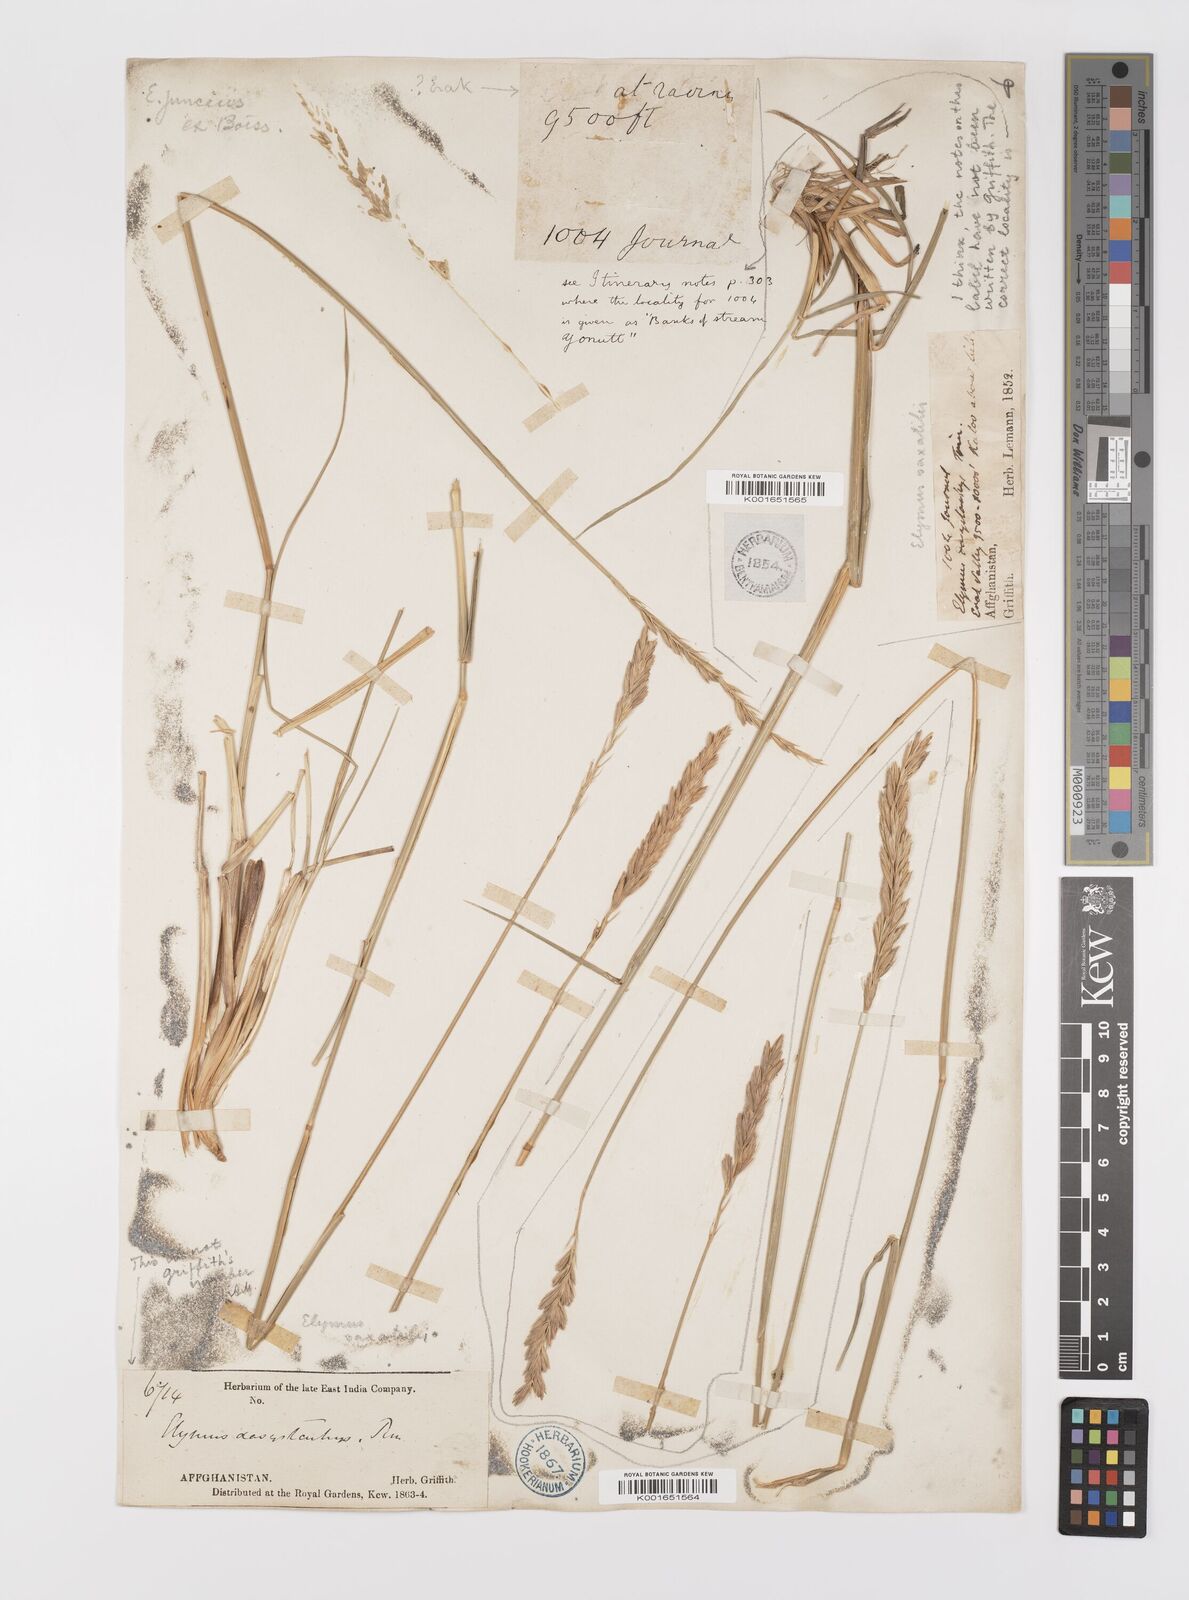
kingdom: Plantae
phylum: Tracheophyta
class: Liliopsida
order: Poales
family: Poaceae
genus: Leymus
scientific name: Leymus
